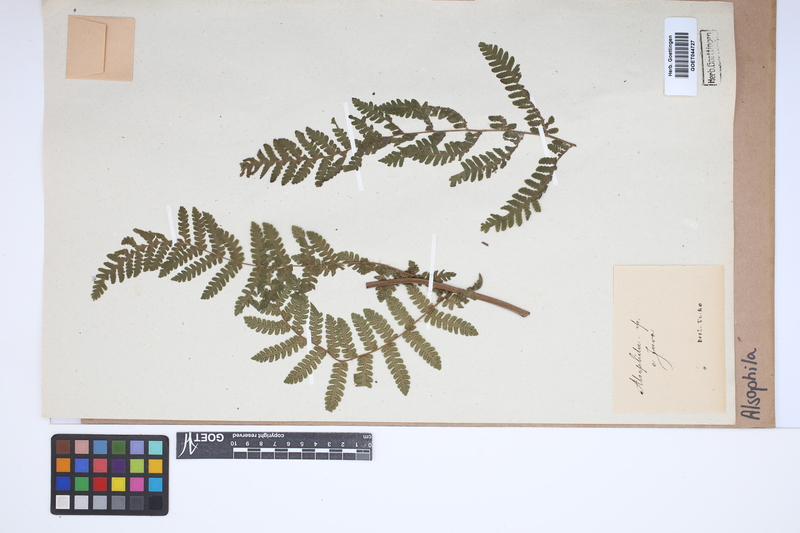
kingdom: Plantae
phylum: Tracheophyta
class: Polypodiopsida
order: Cyatheales
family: Cyatheaceae
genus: Alsophila
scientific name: Alsophila
